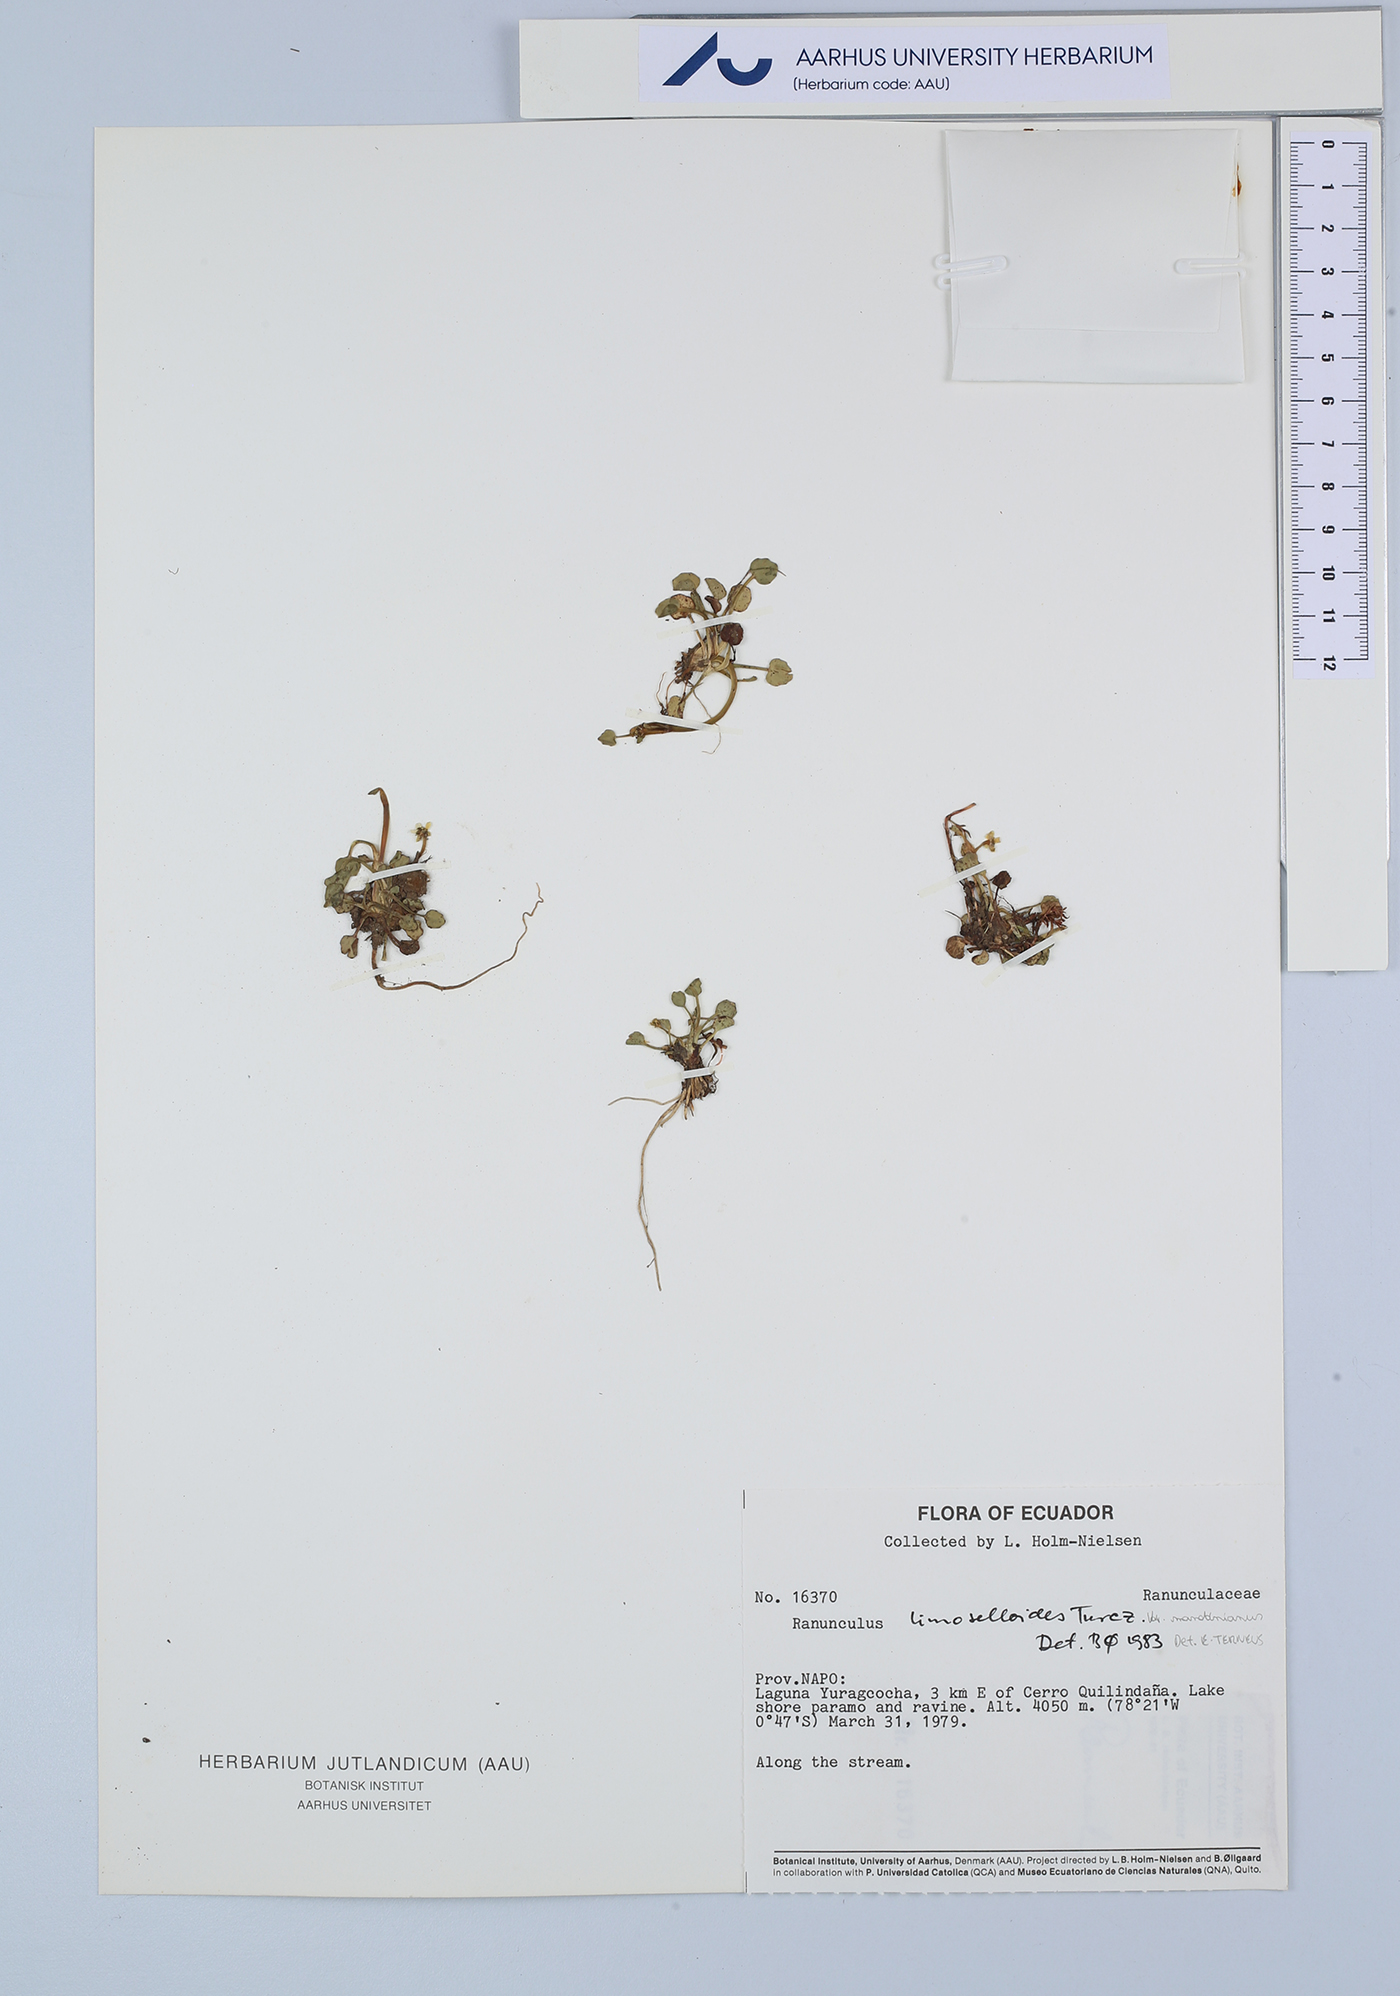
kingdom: Plantae
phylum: Tracheophyta
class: Magnoliopsida
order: Ranunculales
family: Ranunculaceae
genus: Ranunculus
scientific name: Ranunculus limoselloides
